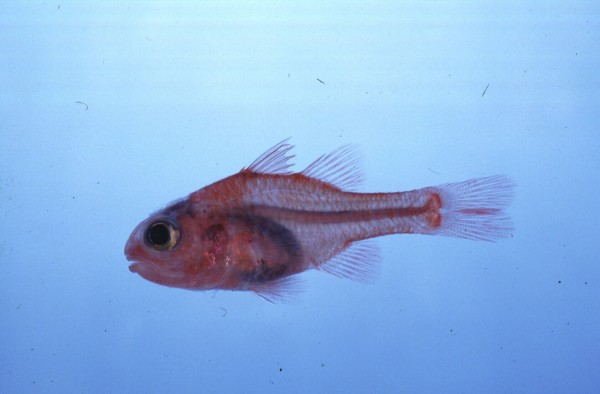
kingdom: Animalia
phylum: Chordata
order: Perciformes
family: Apogonidae
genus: Apogon
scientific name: Apogon coccineus
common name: Ruby cardinalfish
